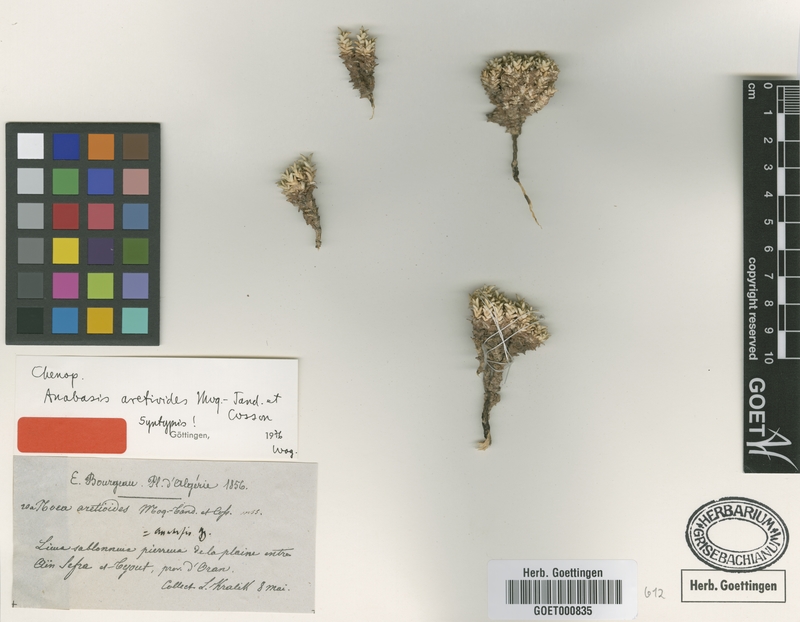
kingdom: Plantae
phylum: Tracheophyta
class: Magnoliopsida
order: Caryophyllales
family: Amaranthaceae
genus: Anabasis
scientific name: Anabasis aretioides
